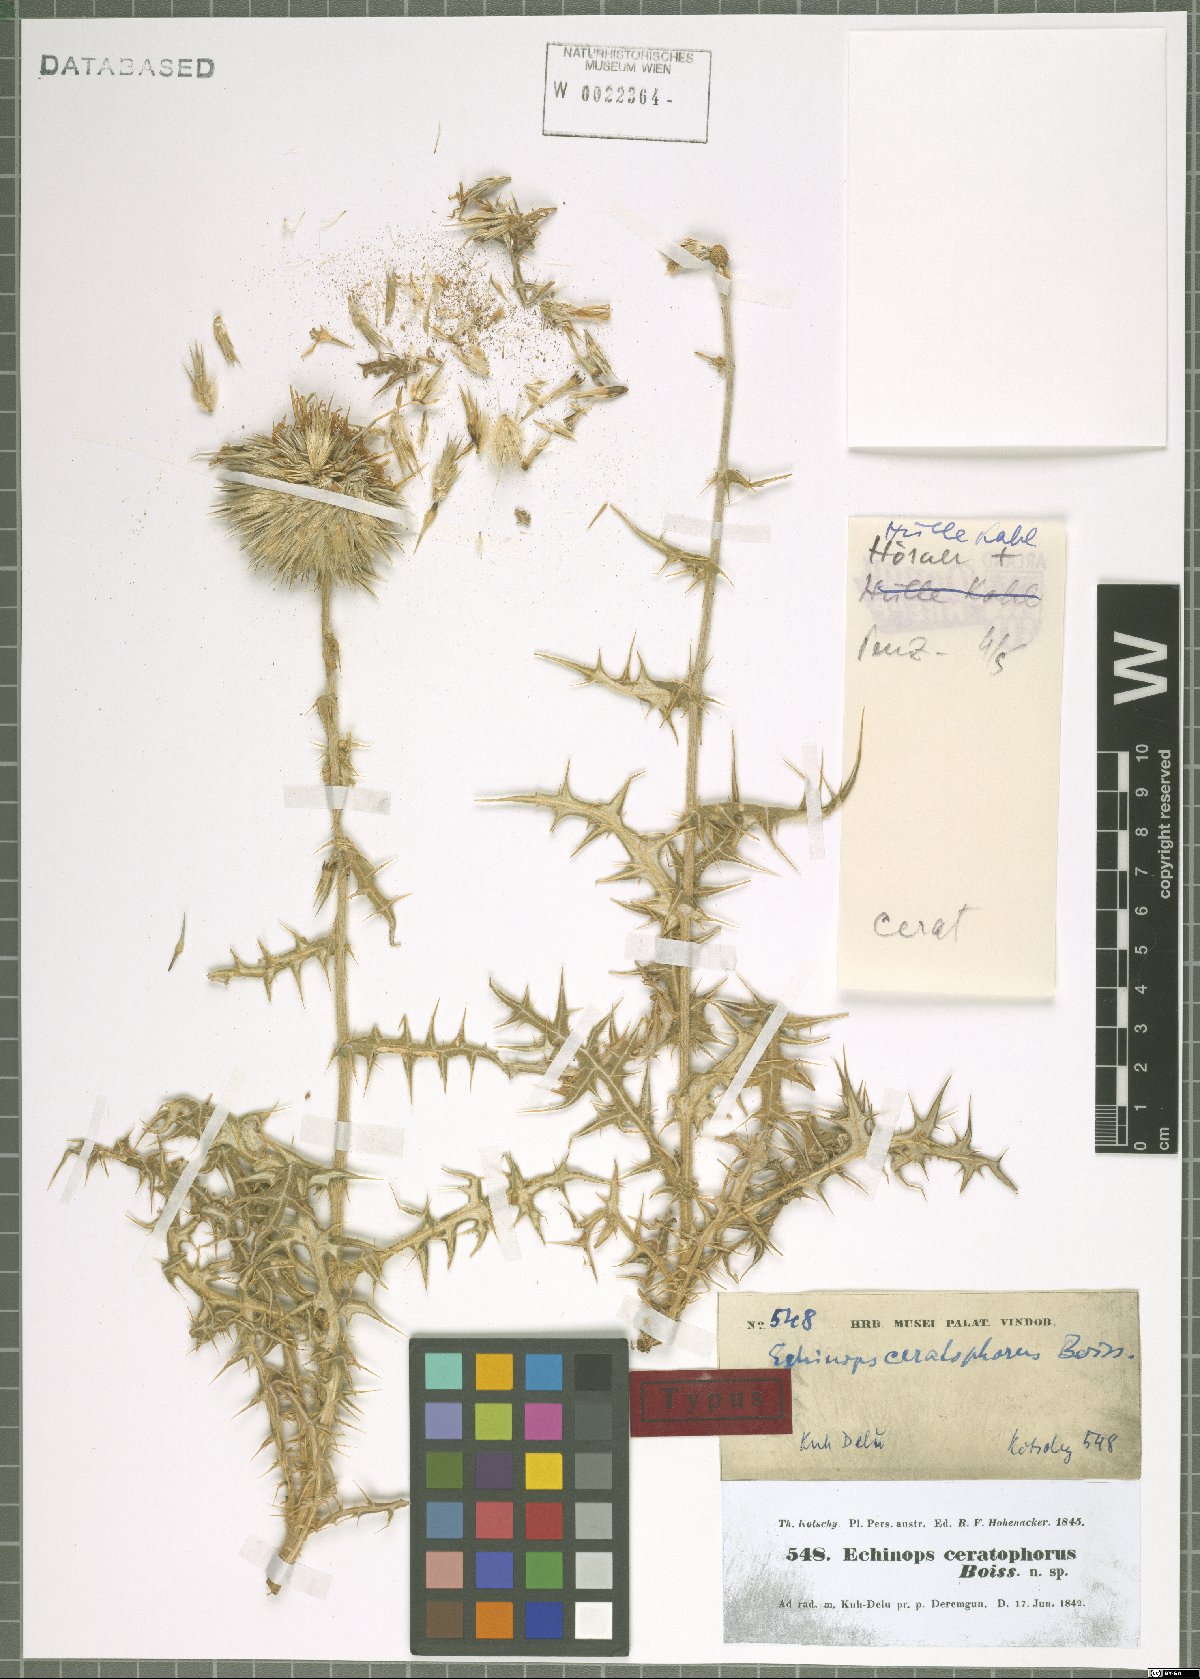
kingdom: Plantae
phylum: Tracheophyta
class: Magnoliopsida
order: Asterales
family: Asteraceae
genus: Echinops
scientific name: Echinops ceratophorus
